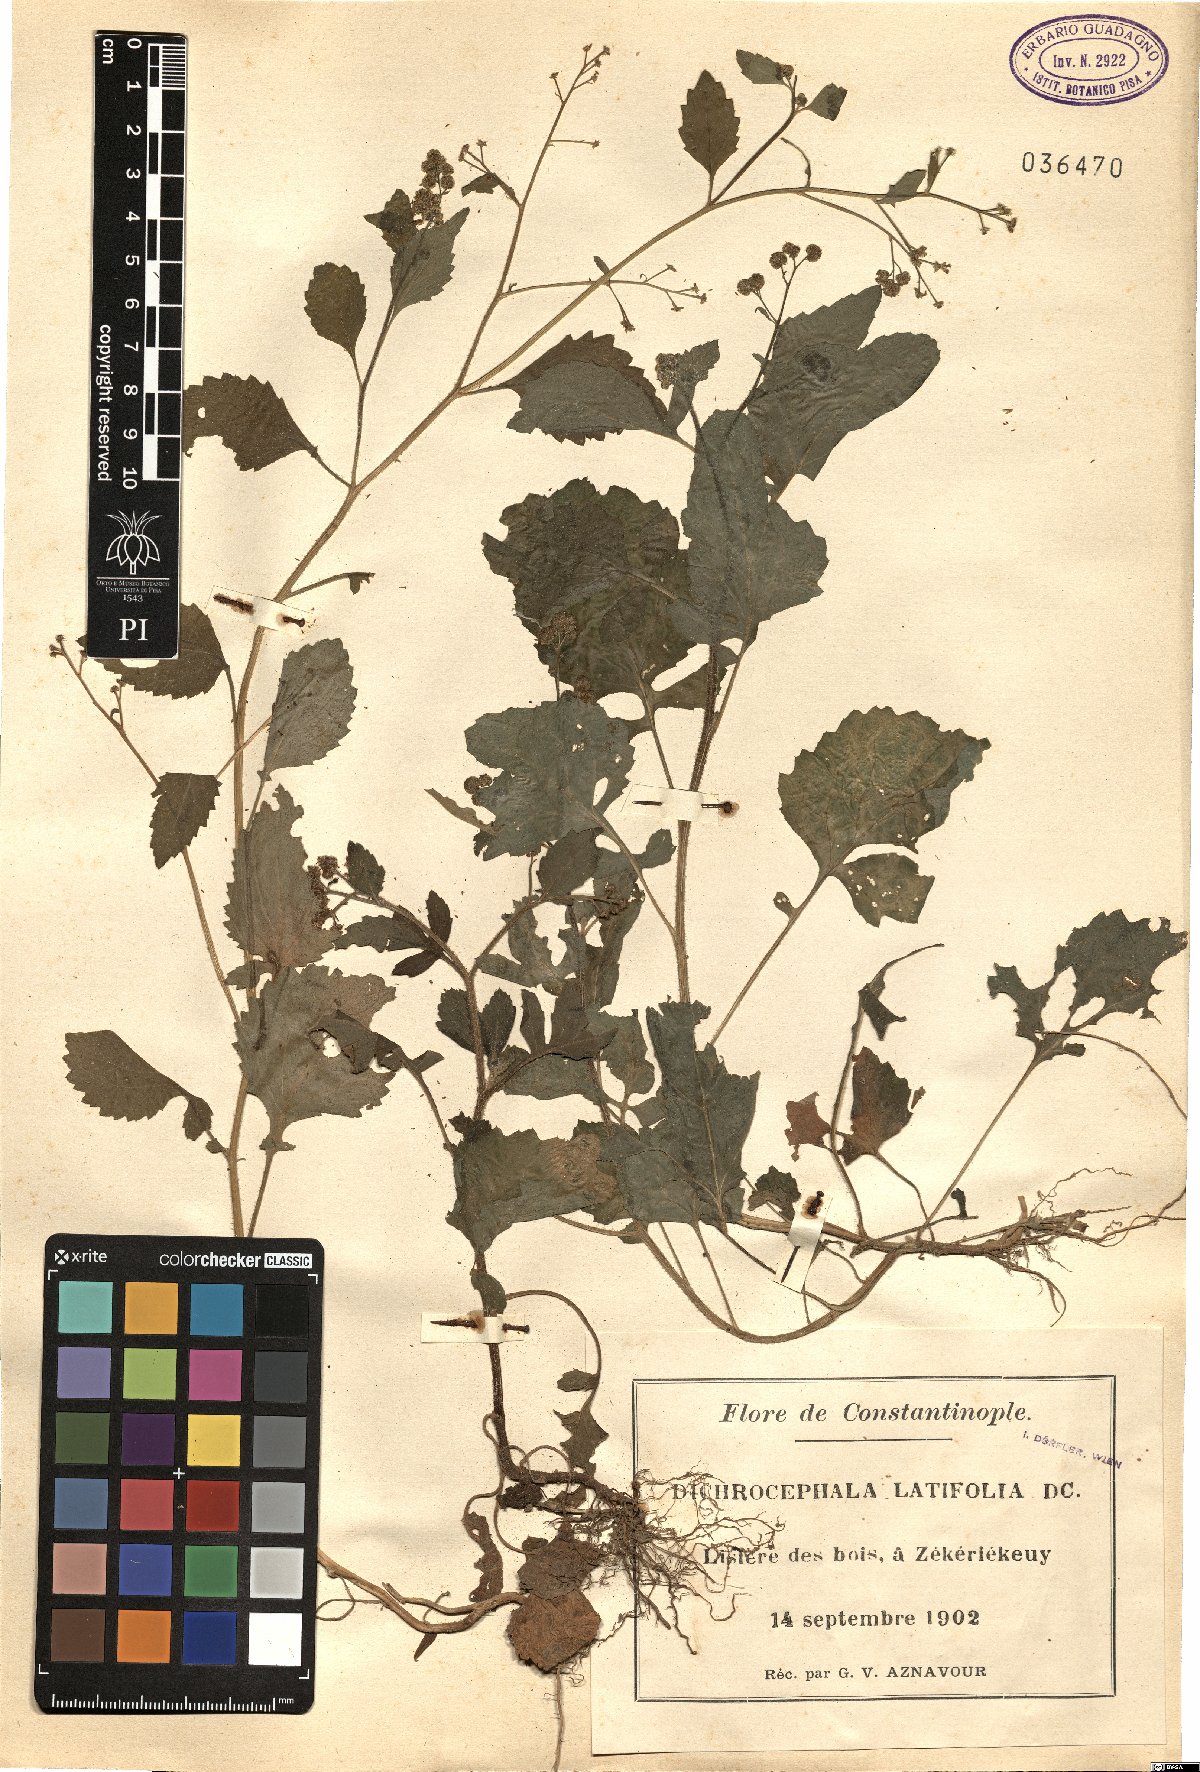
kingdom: Plantae
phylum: Tracheophyta
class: Magnoliopsida
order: Asterales
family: Asteraceae
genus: Dichrocephala
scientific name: Dichrocephala integrifolia
